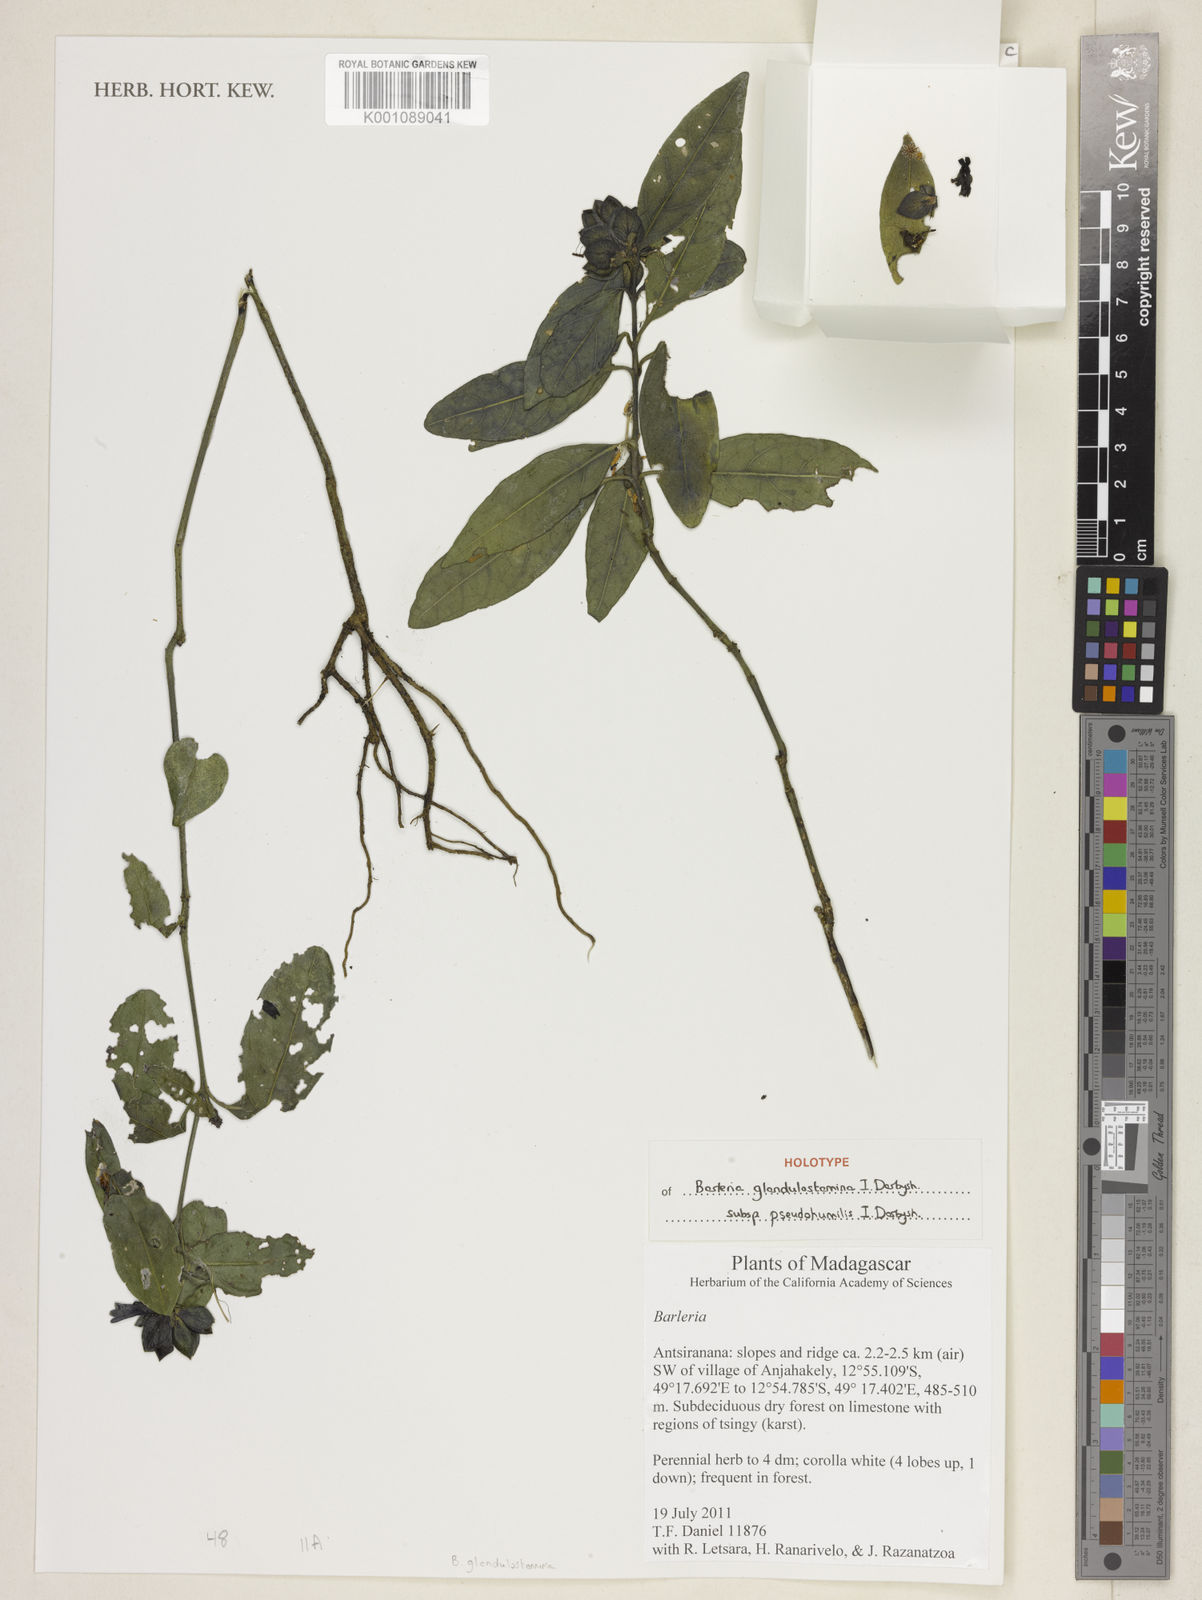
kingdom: Plantae
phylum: Tracheophyta
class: Magnoliopsida
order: Lamiales
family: Acanthaceae
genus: Barleria
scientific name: Barleria glandulostamina
